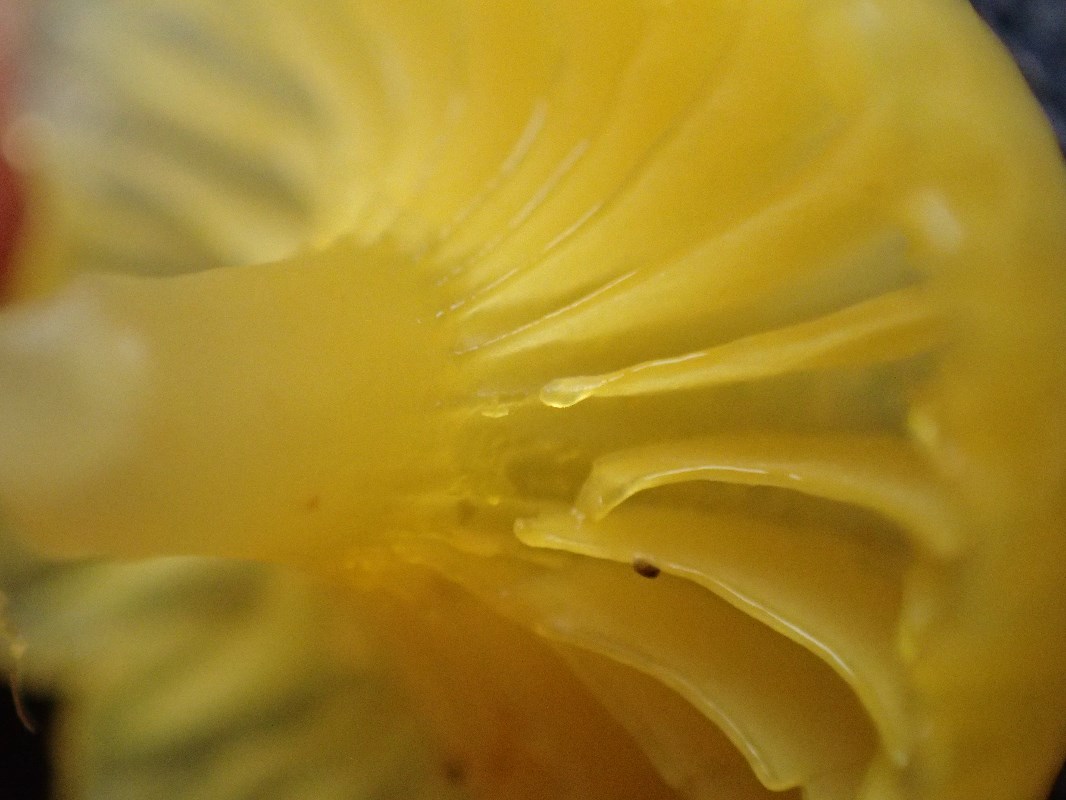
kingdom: Fungi
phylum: Basidiomycota
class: Agaricomycetes
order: Agaricales
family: Hygrophoraceae
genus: Gloioxanthomyces
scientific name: Gloioxanthomyces vitellinus
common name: kromgul vokshat
